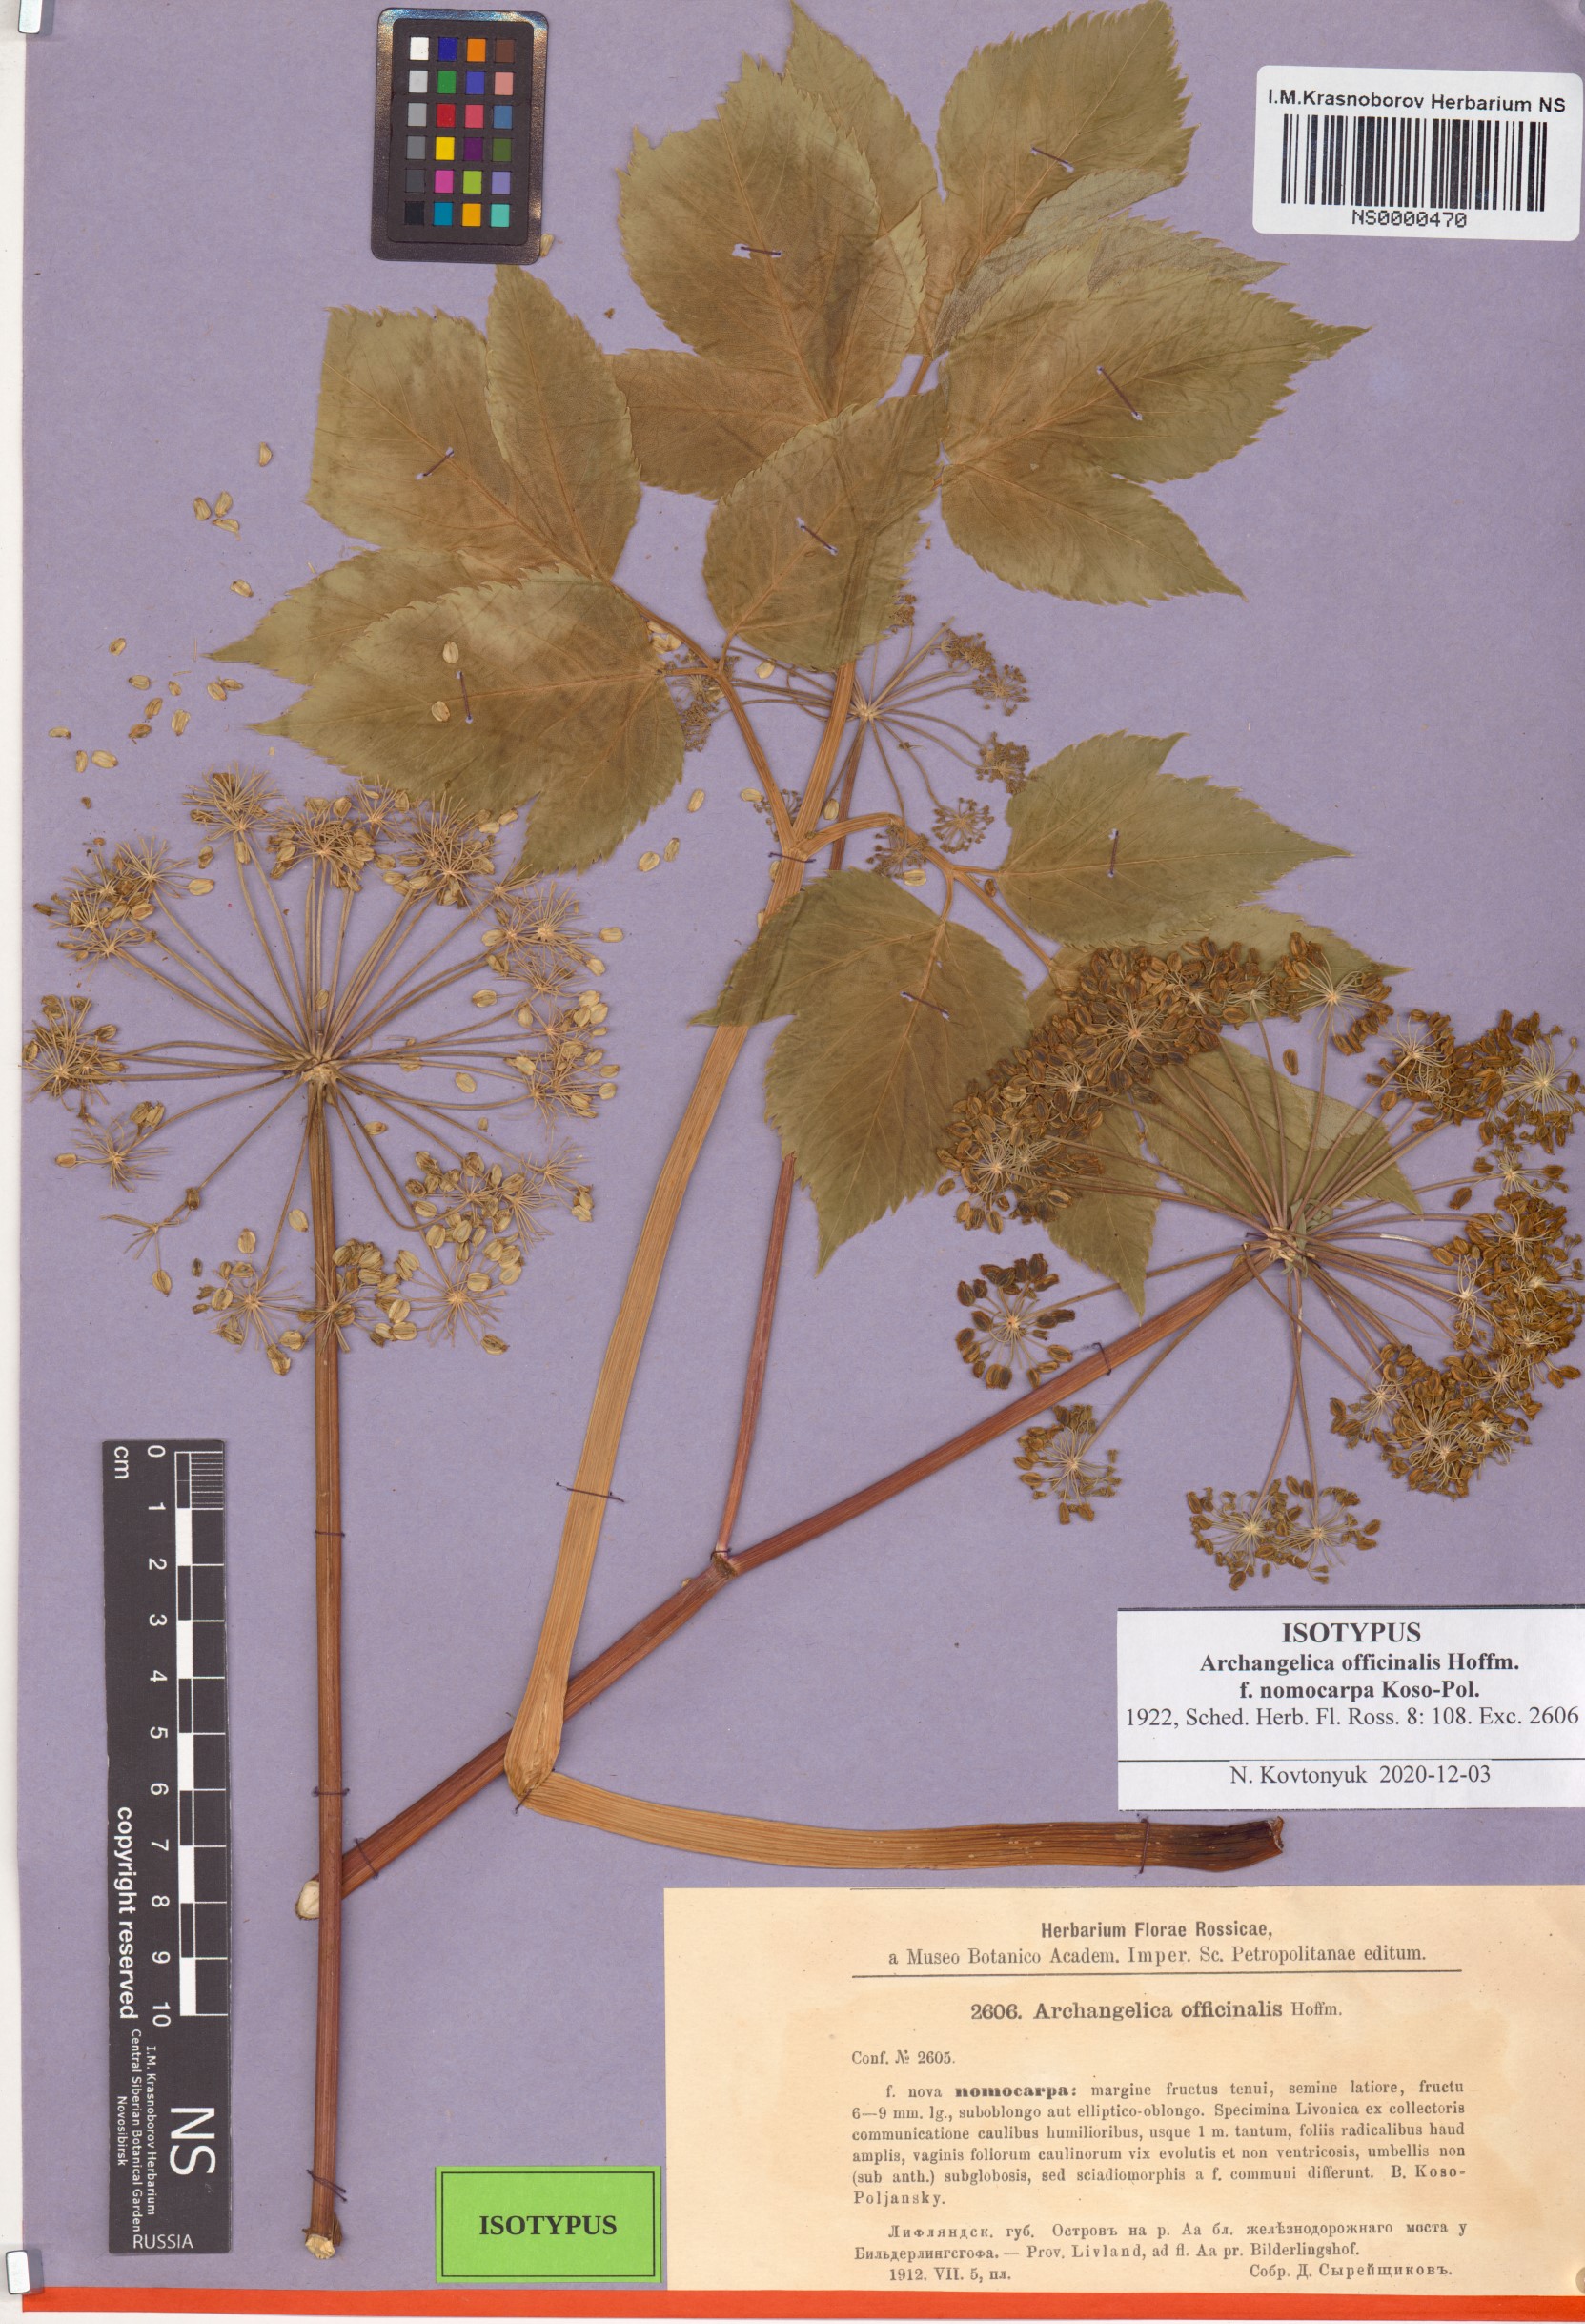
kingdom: Plantae
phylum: Tracheophyta
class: Magnoliopsida
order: Apiales
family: Apiaceae
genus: Angelica
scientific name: Angelica archangelica
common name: Garden angelica
